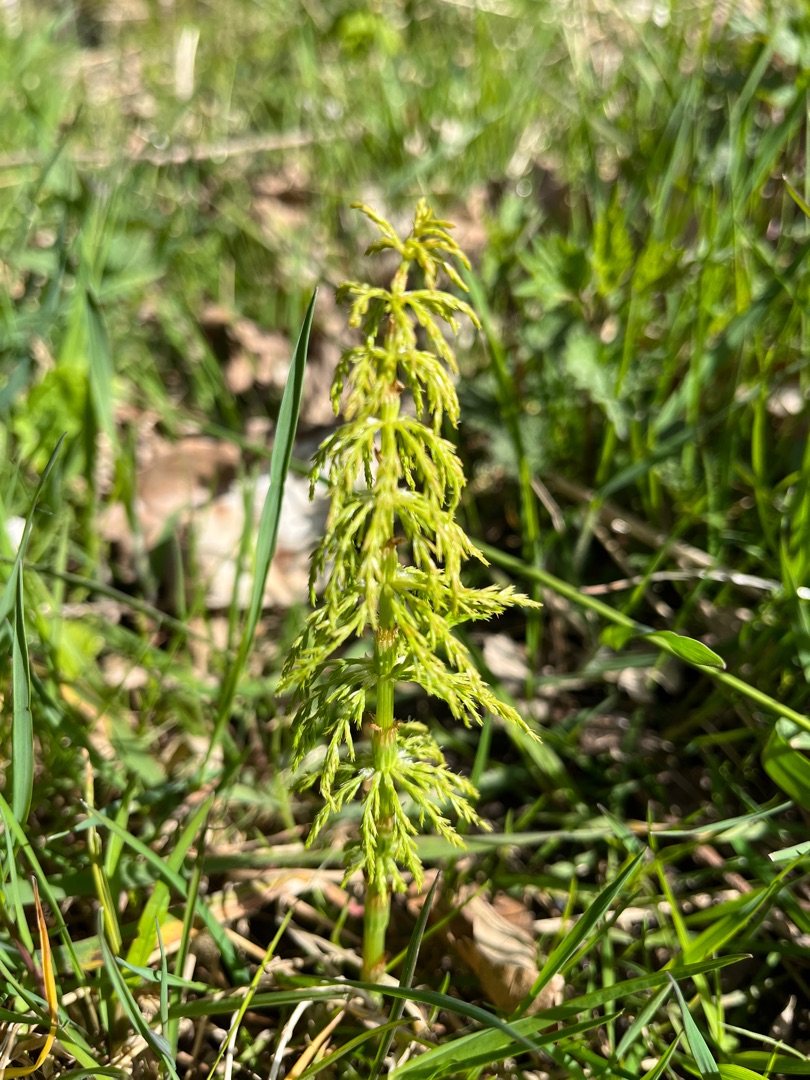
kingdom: Plantae
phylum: Tracheophyta
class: Polypodiopsida
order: Equisetales
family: Equisetaceae
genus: Equisetum
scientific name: Equisetum sylvaticum
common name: Skov-padderok
